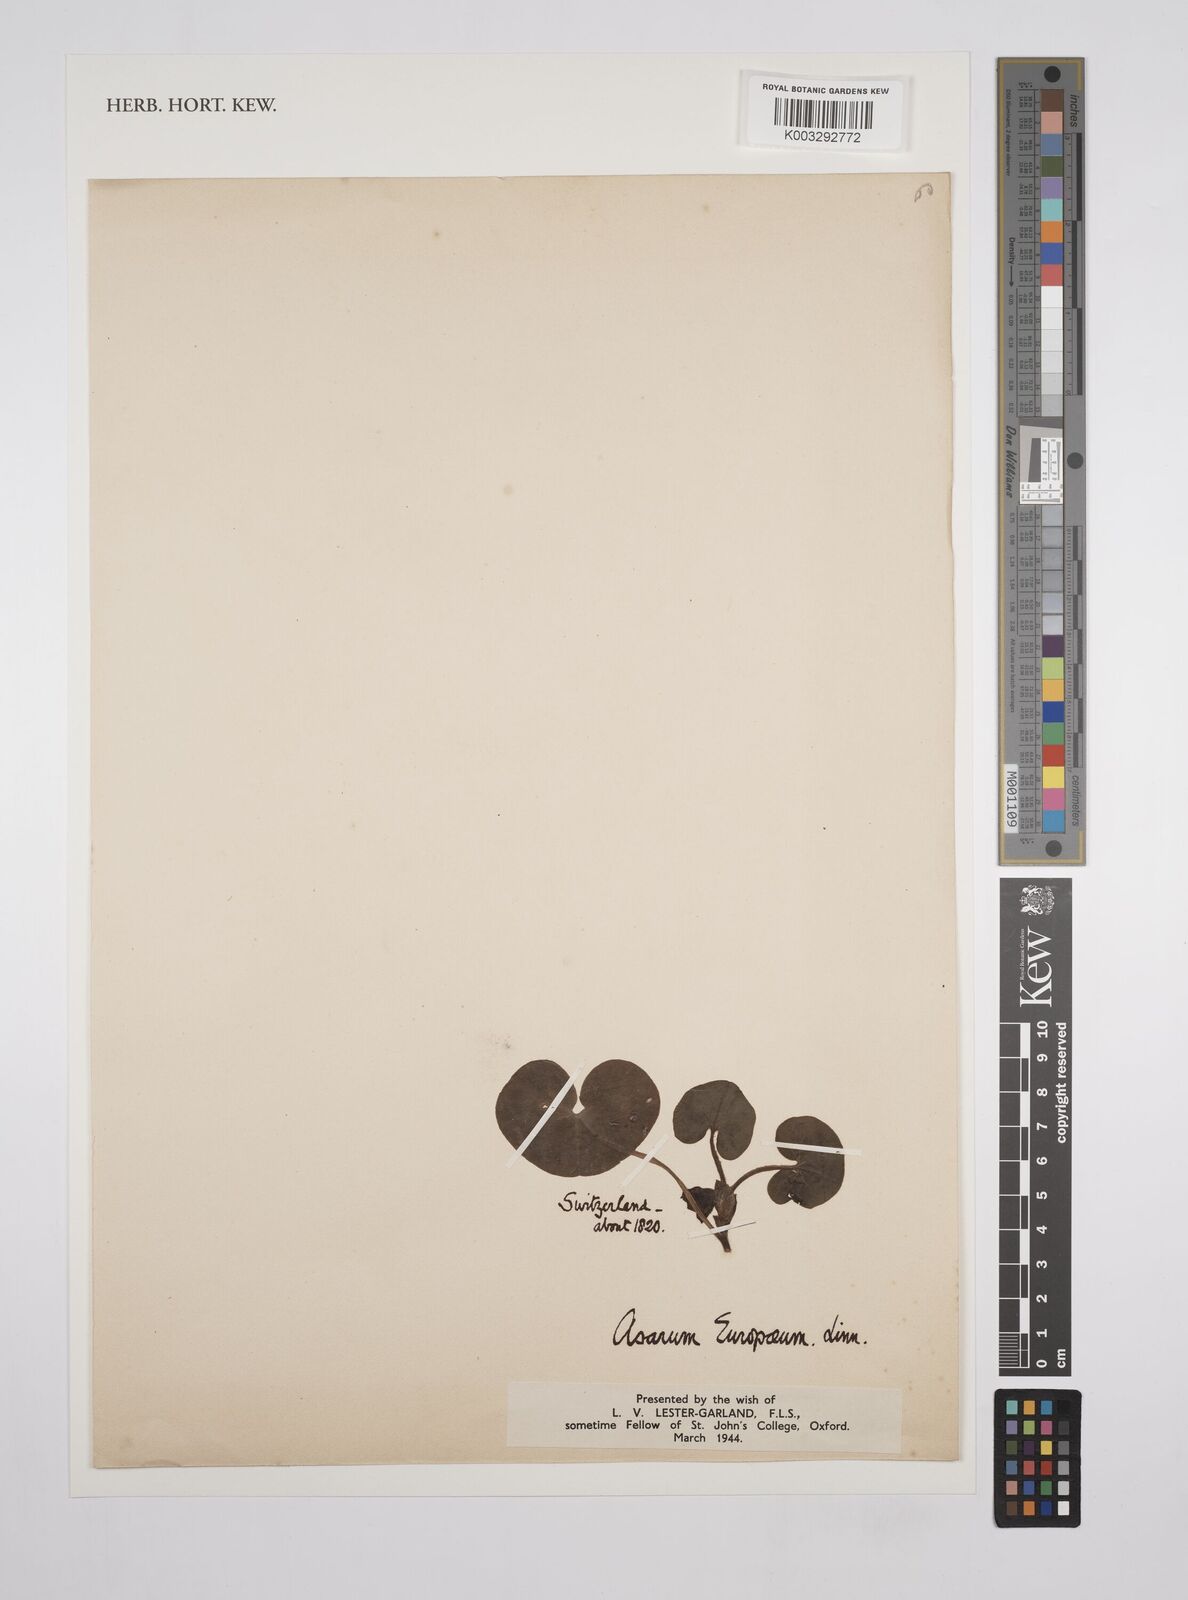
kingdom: Plantae
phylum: Tracheophyta
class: Magnoliopsida
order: Piperales
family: Aristolochiaceae
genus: Asarum
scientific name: Asarum europaeum
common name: Asarabacca
